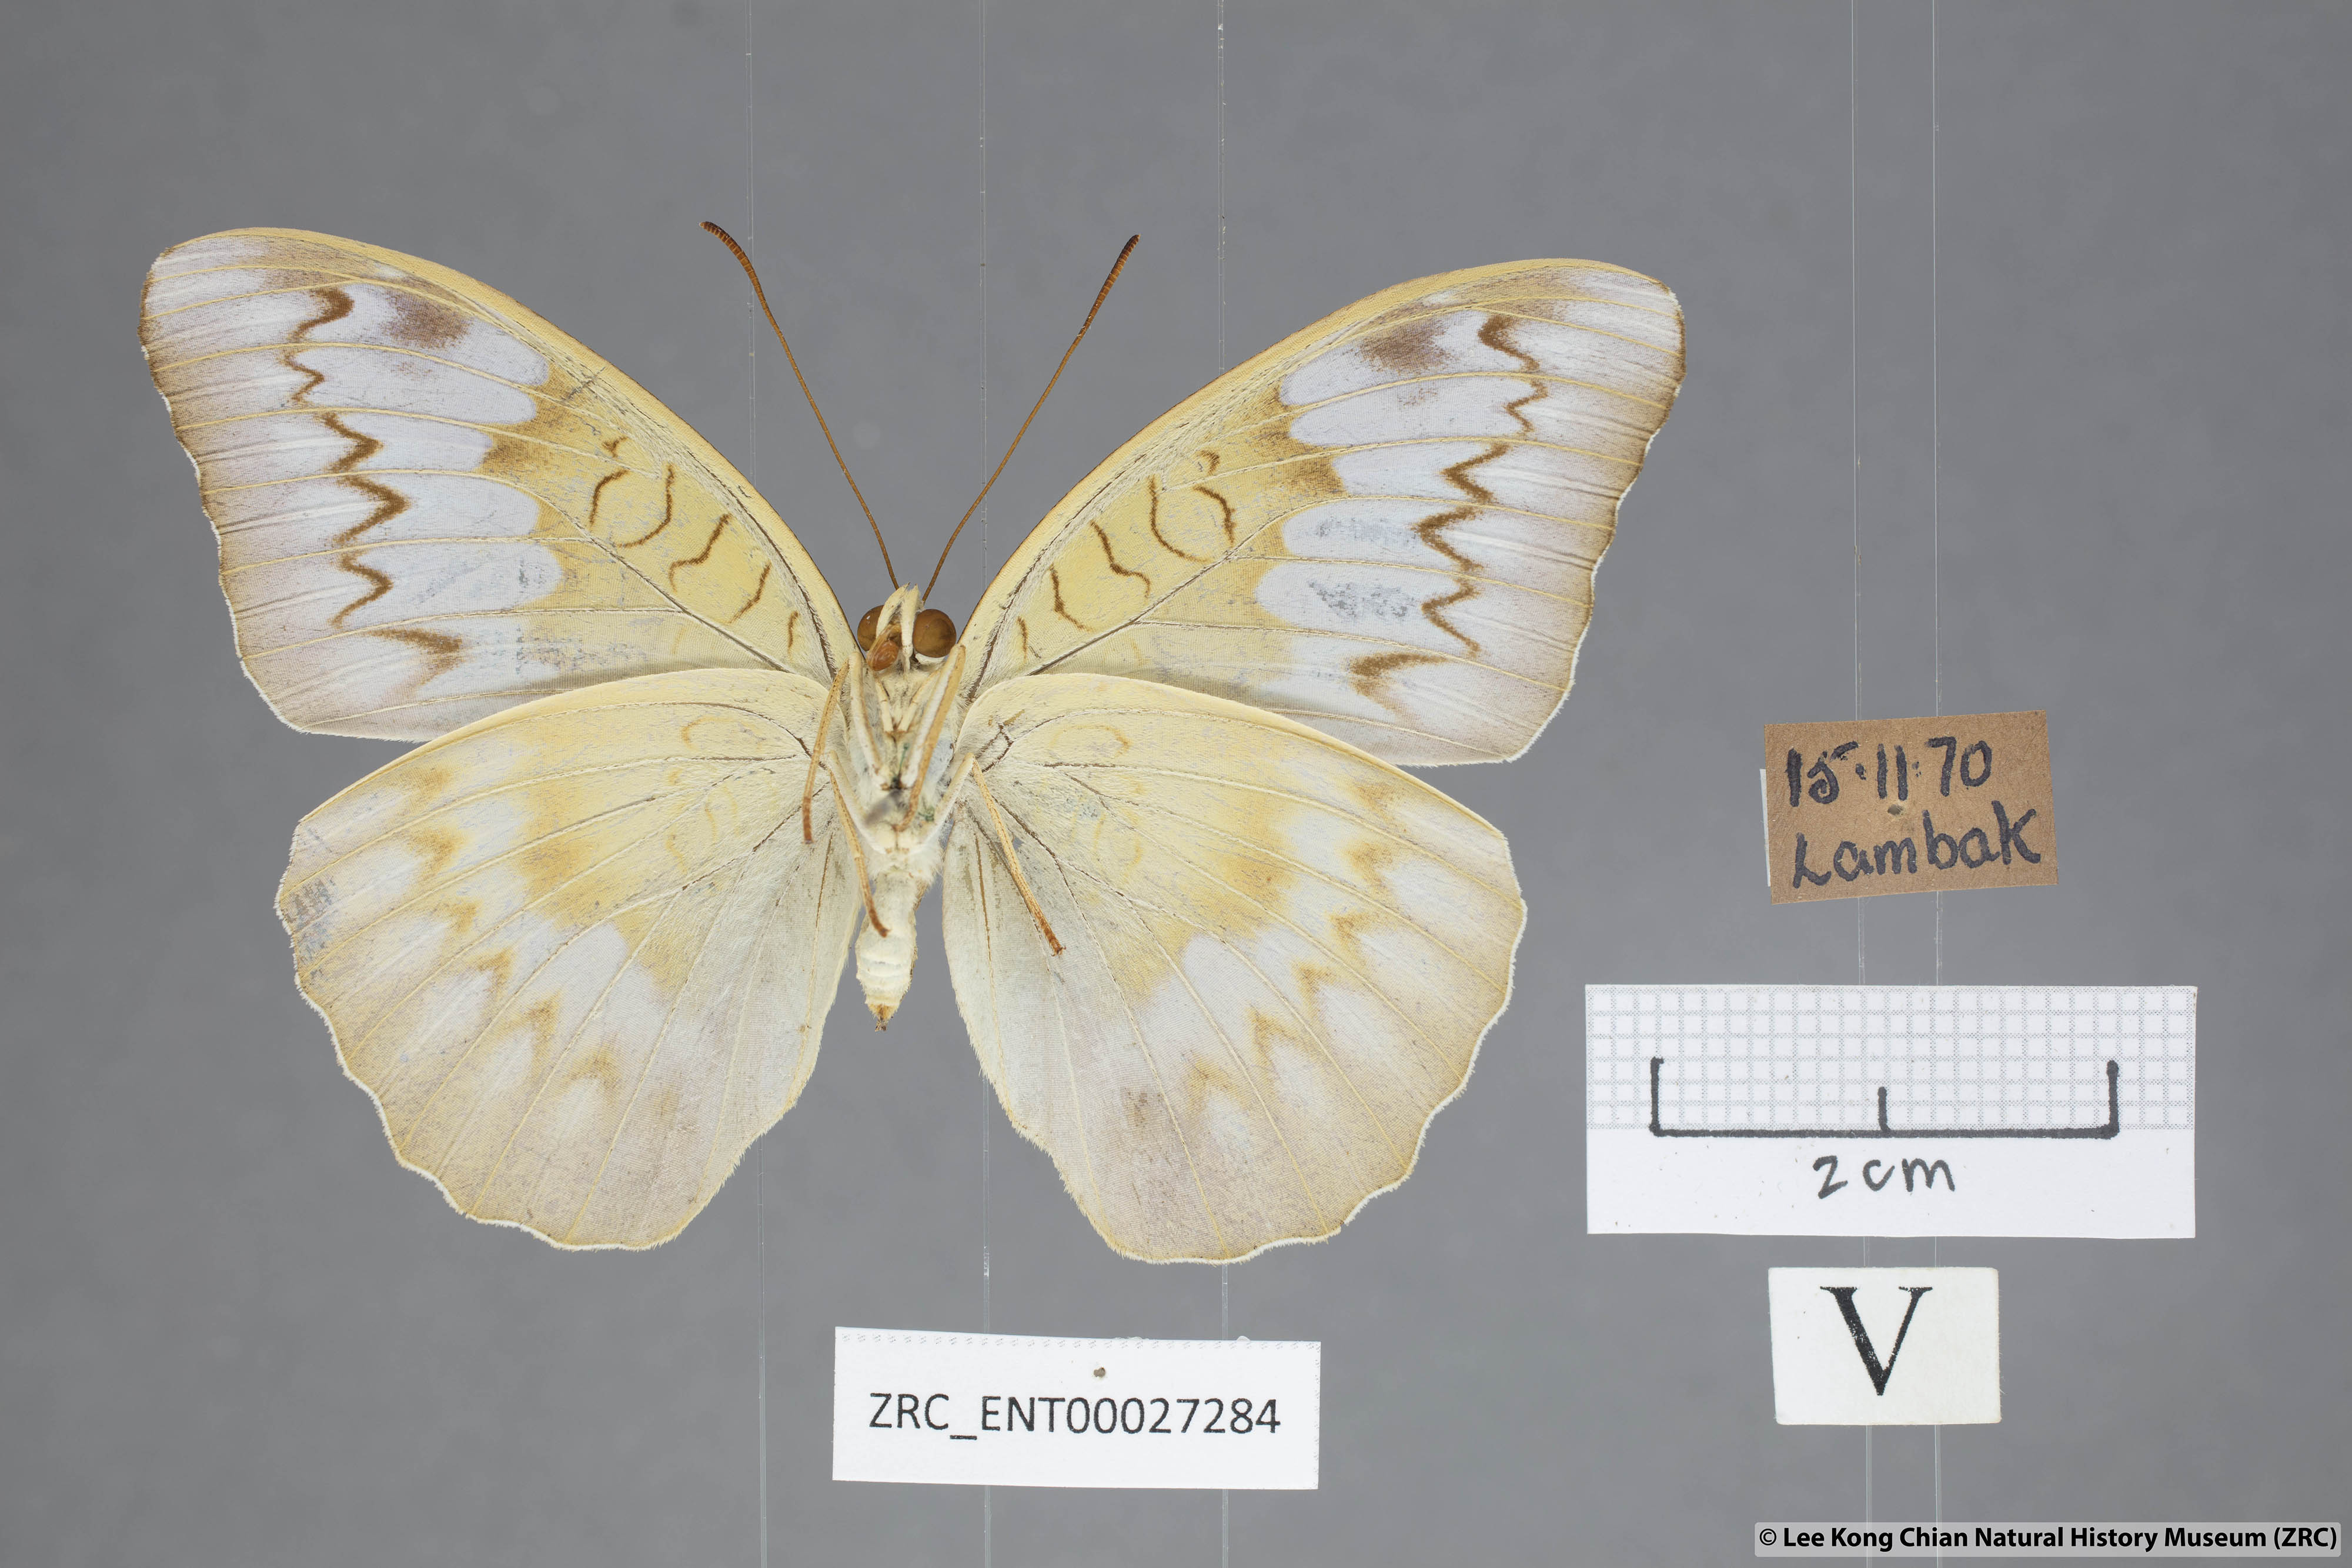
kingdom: Animalia
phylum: Arthropoda
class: Insecta
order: Lepidoptera
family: Nymphalidae
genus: Tanaecia
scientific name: Tanaecia iapis
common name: Horsfield's baron
